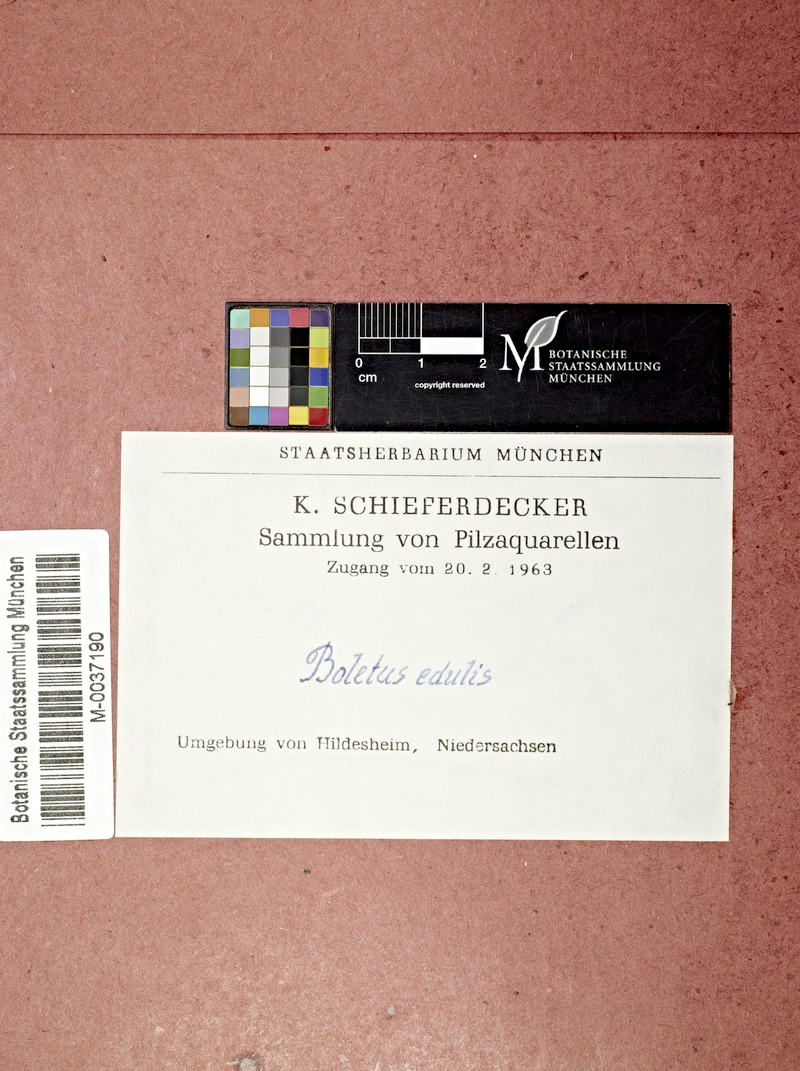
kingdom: Fungi
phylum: Basidiomycota
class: Agaricomycetes
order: Boletales
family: Boletaceae
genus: Leccinum
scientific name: Leccinum scabrum
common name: Blushing bolete
